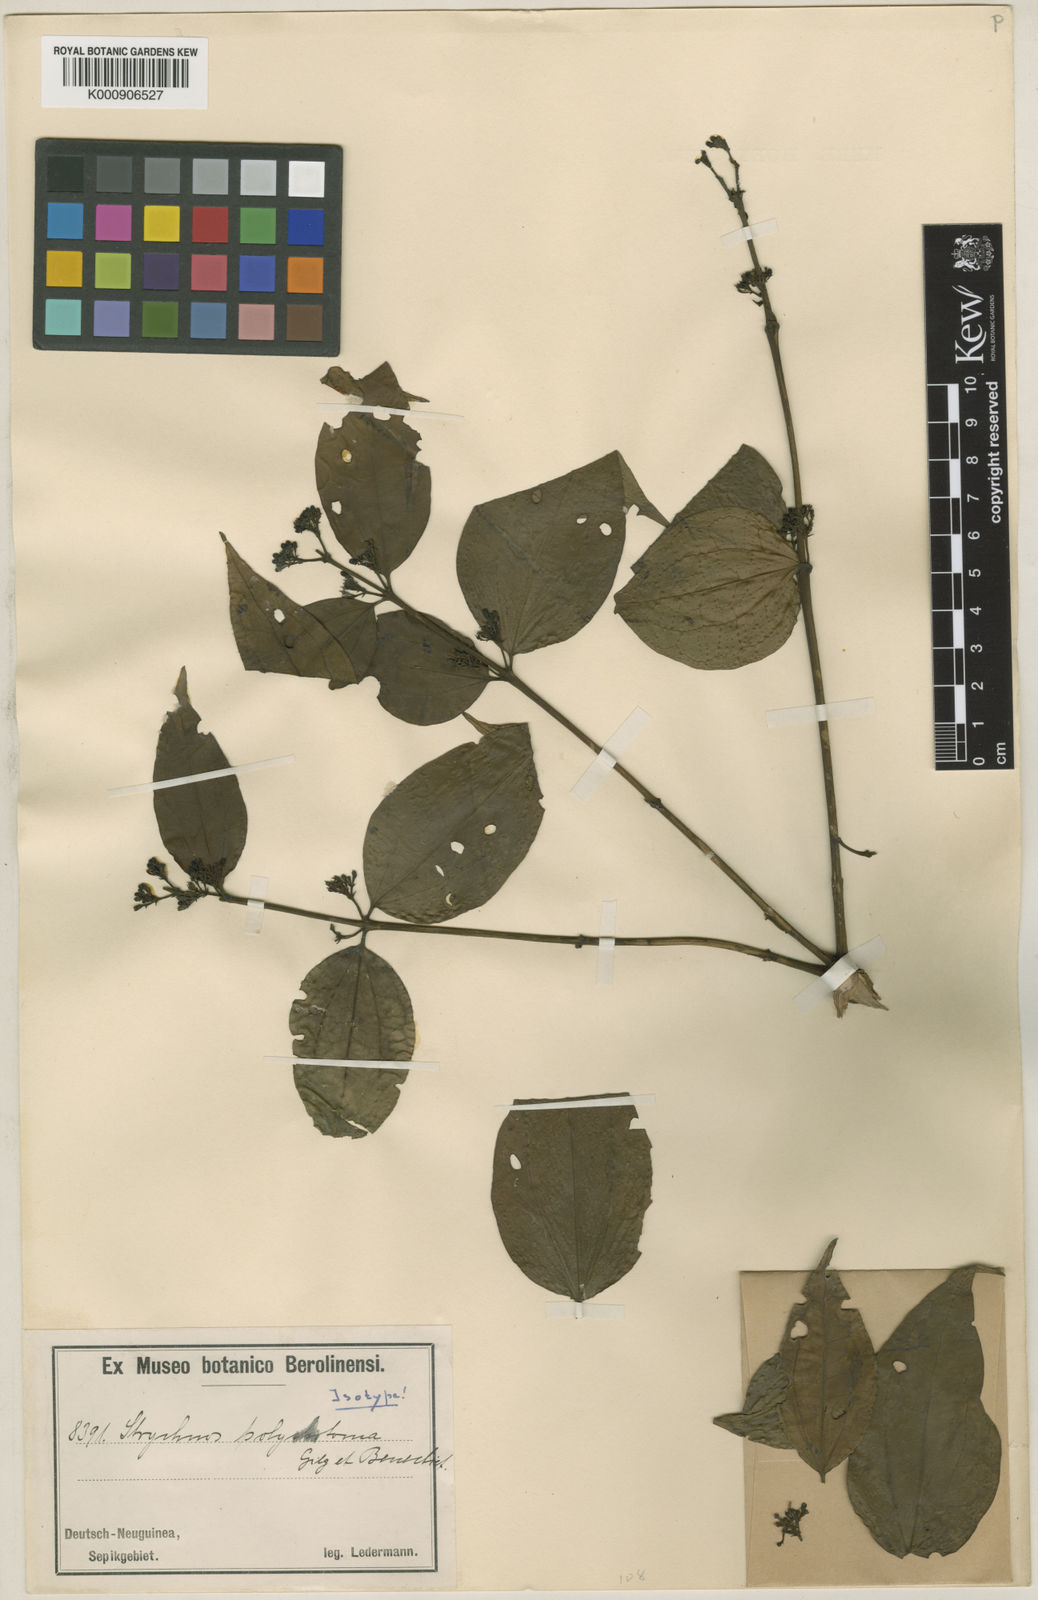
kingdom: Plantae
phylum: Tracheophyta
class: Magnoliopsida
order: Gentianales
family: Loganiaceae
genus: Strychnos
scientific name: Strychnos axillaris
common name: Strychninebush
